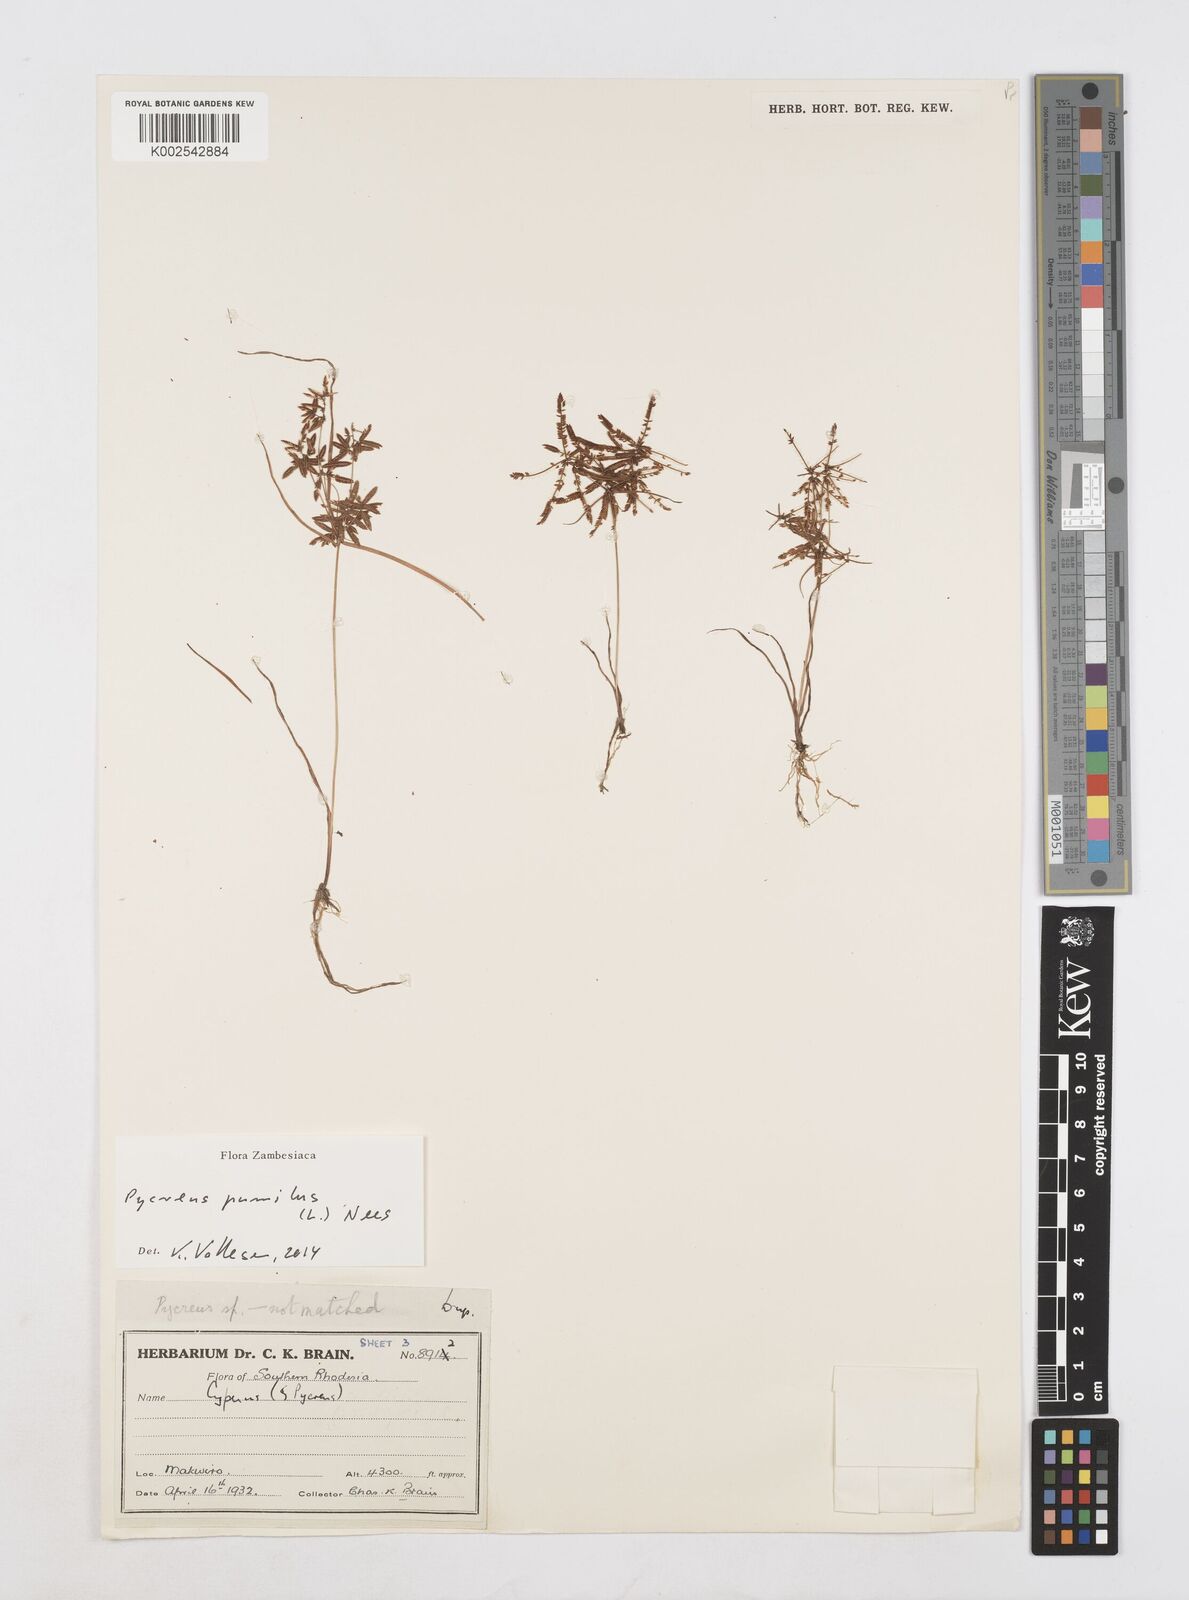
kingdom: Plantae
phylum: Tracheophyta
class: Liliopsida
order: Poales
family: Cyperaceae
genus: Cyperus
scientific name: Cyperus pumilus
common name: Low flatsedge
